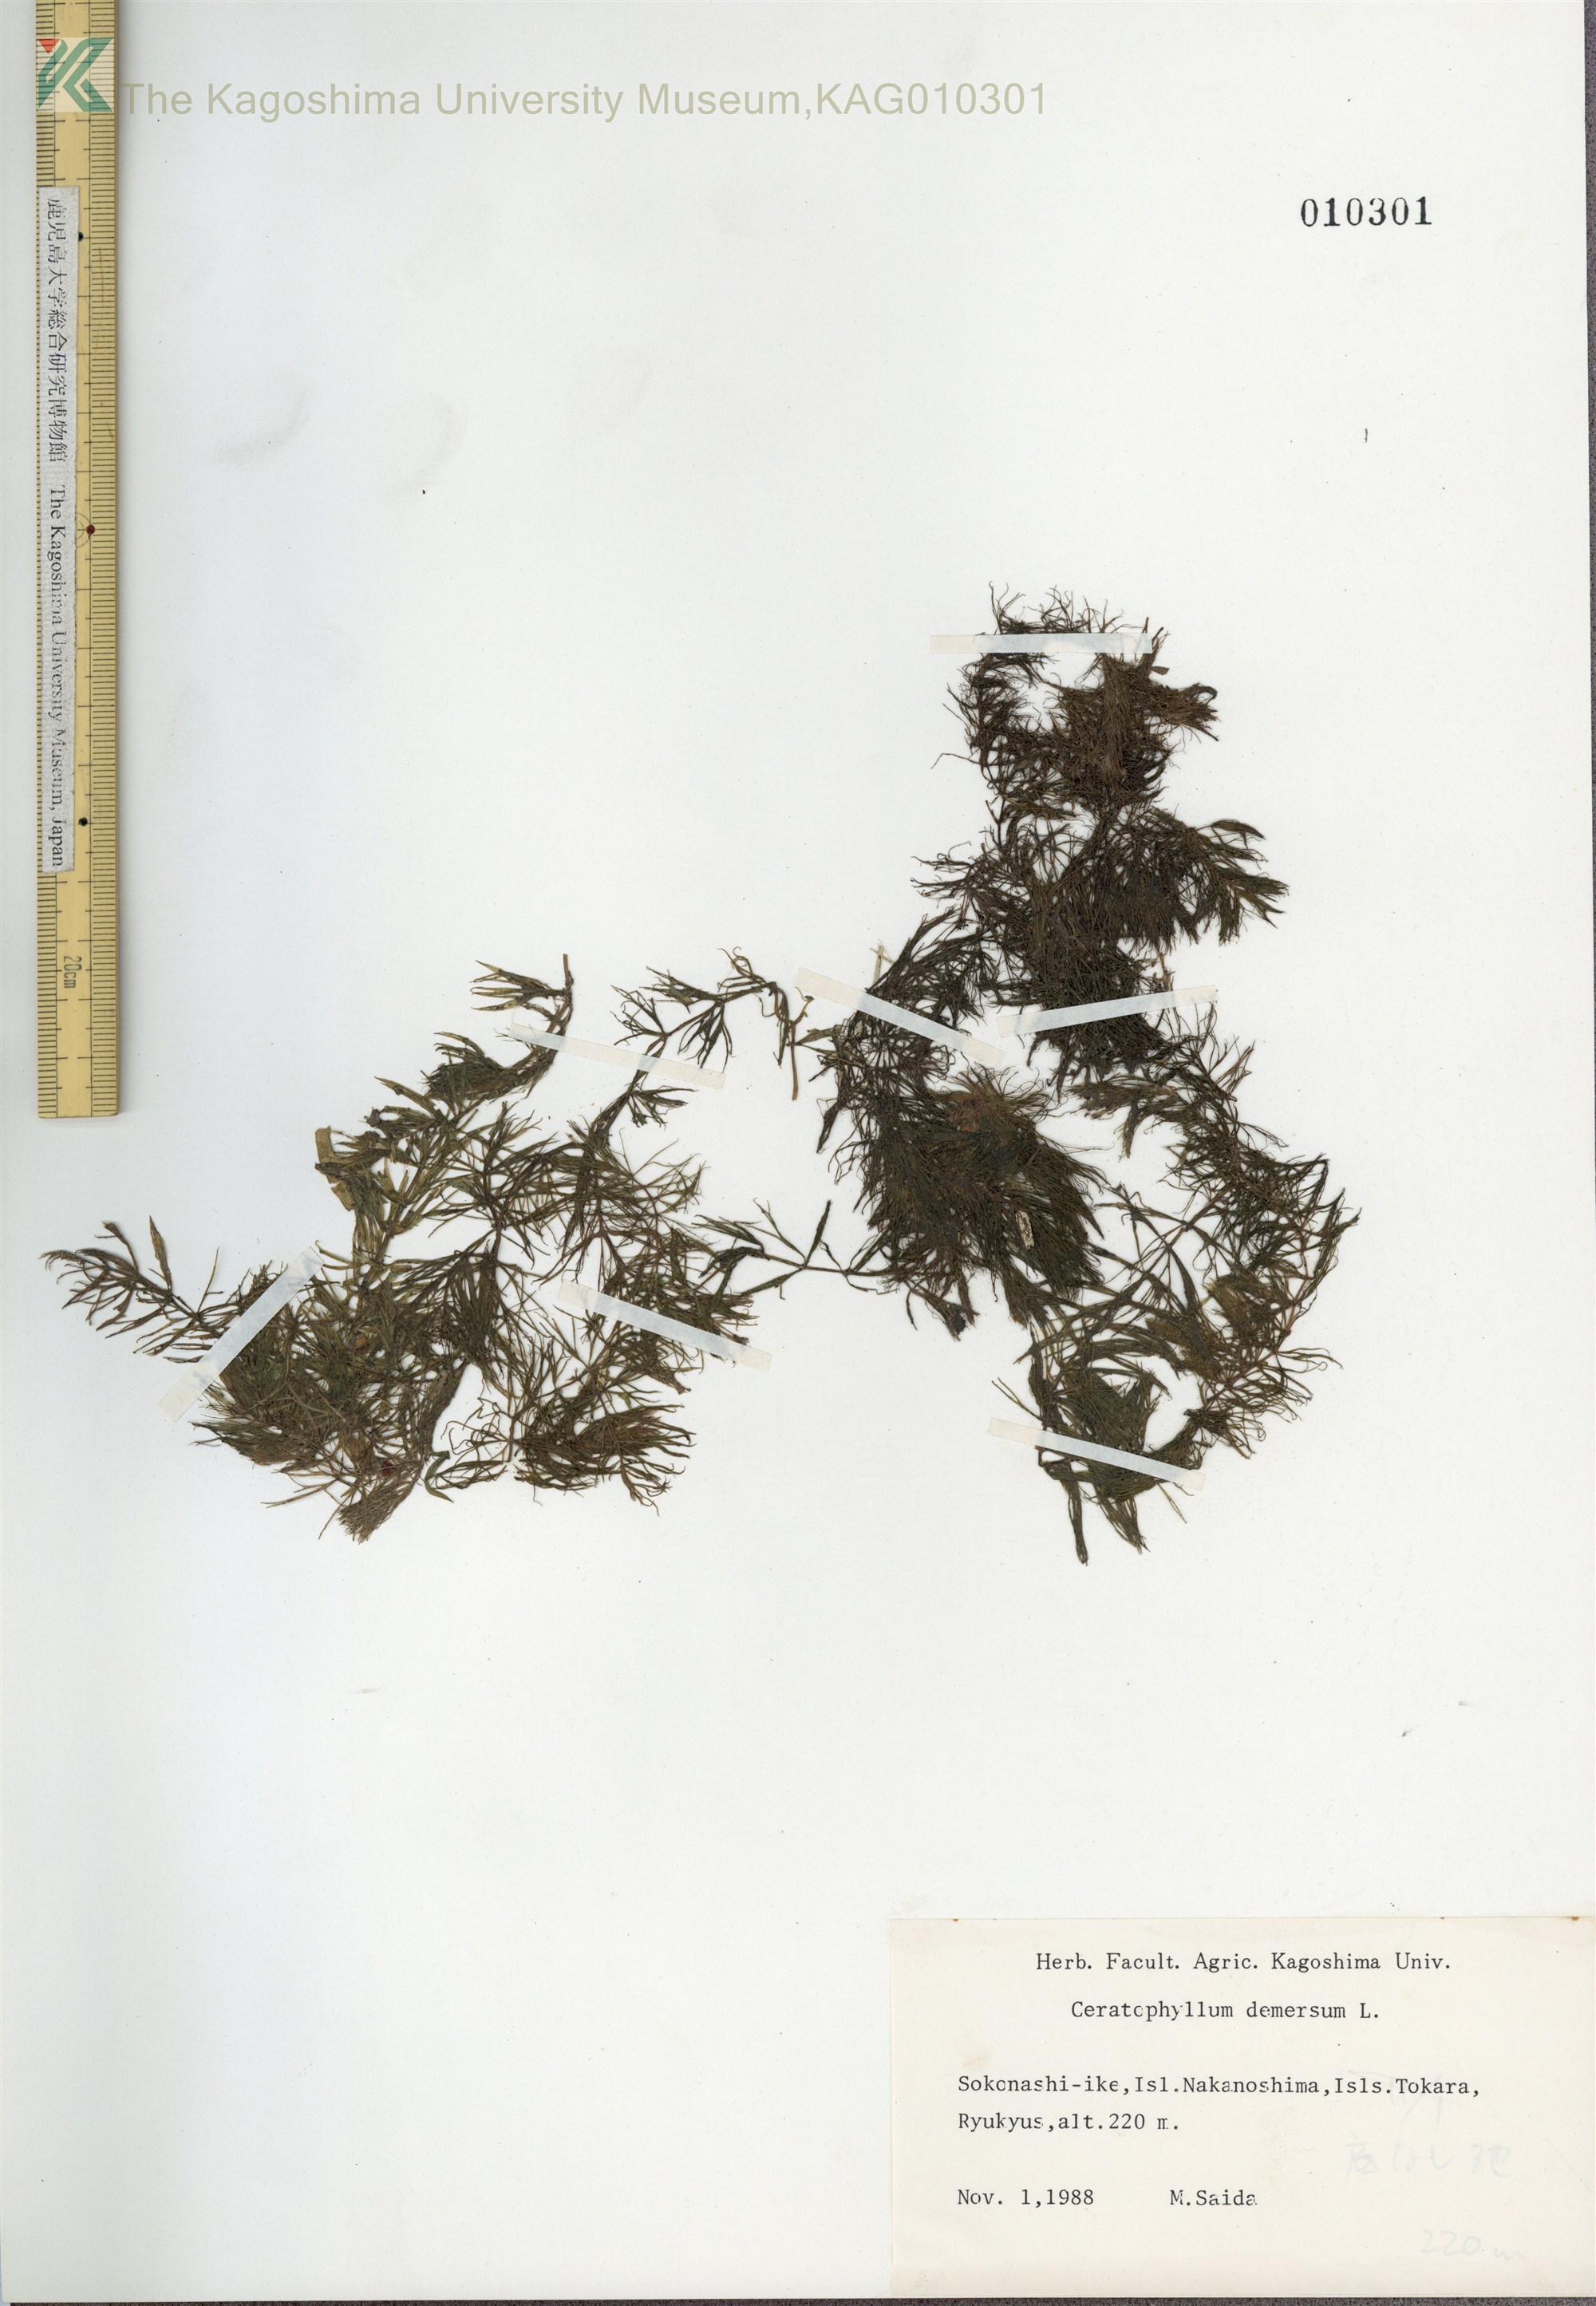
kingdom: Plantae
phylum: Tracheophyta
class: Magnoliopsida
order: Ceratophyllales
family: Ceratophyllaceae
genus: Ceratophyllum
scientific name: Ceratophyllum demersum
